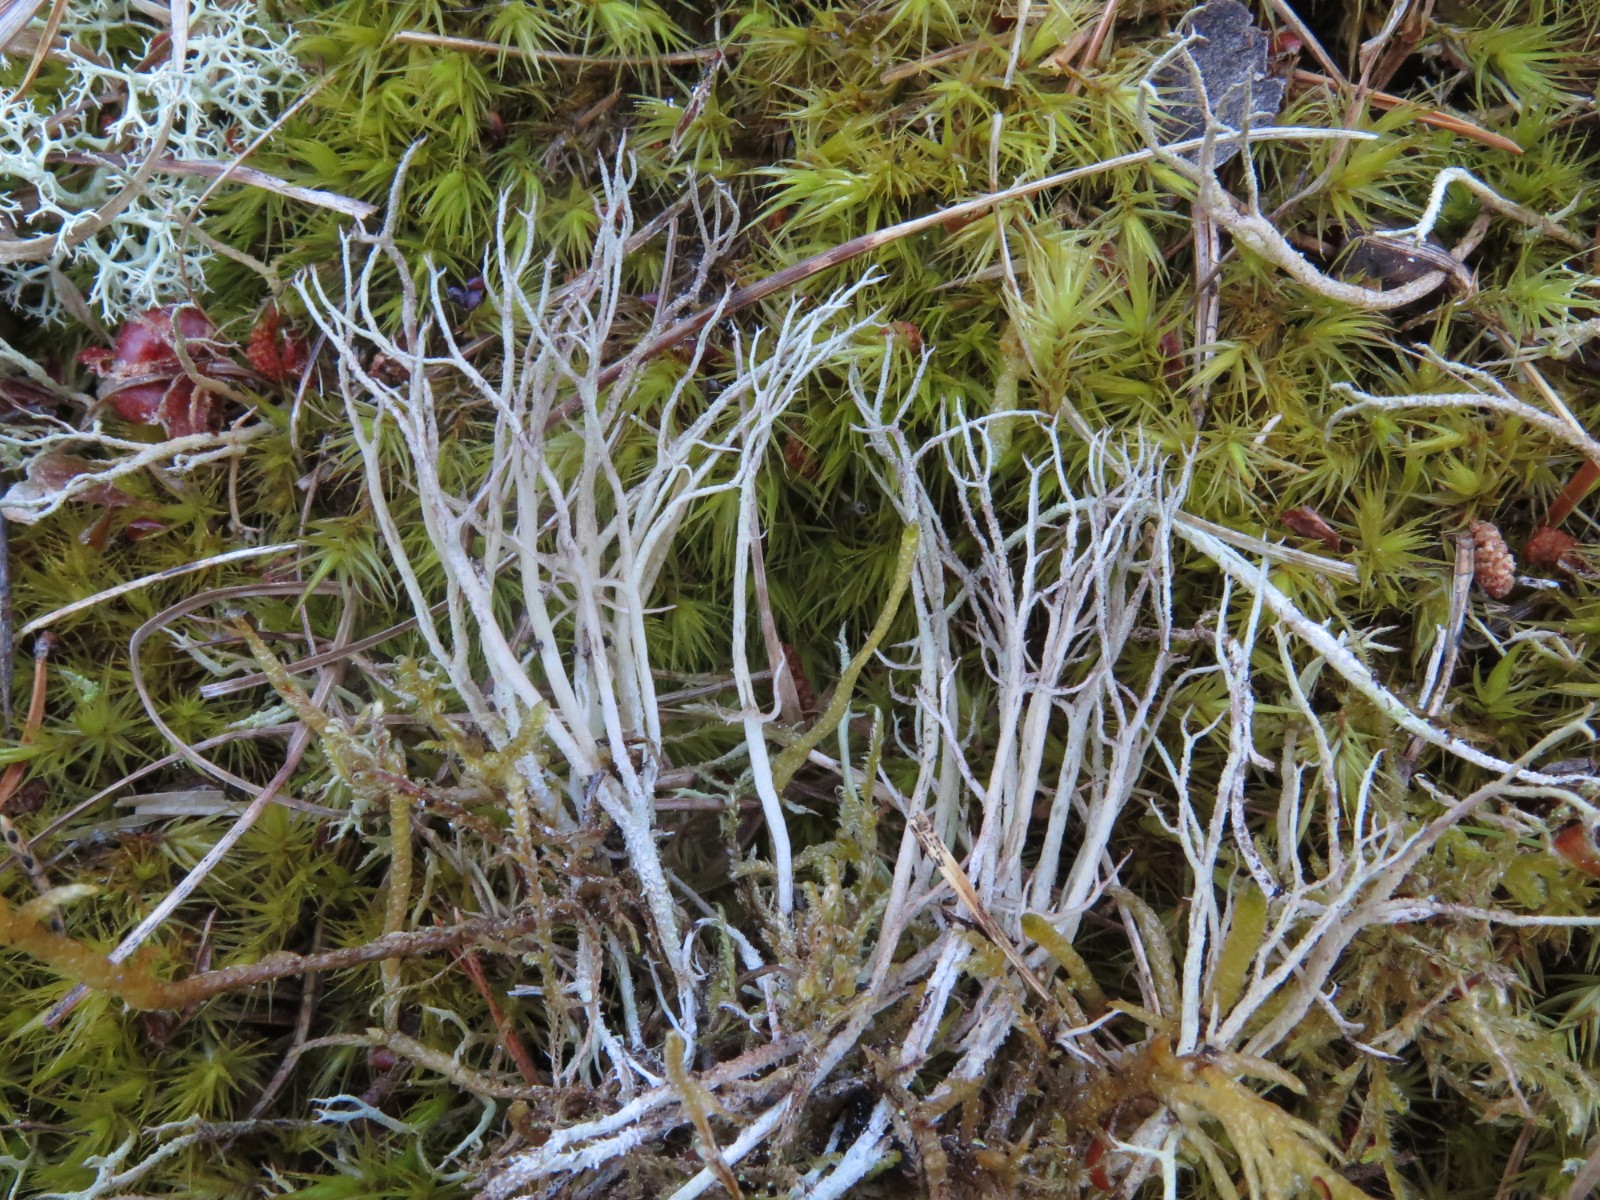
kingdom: Fungi
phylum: Ascomycota
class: Lecanoromycetes
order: Lecanorales
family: Cladoniaceae
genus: Cladonia
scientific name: Cladonia furcata
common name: kløftet bægerlav
